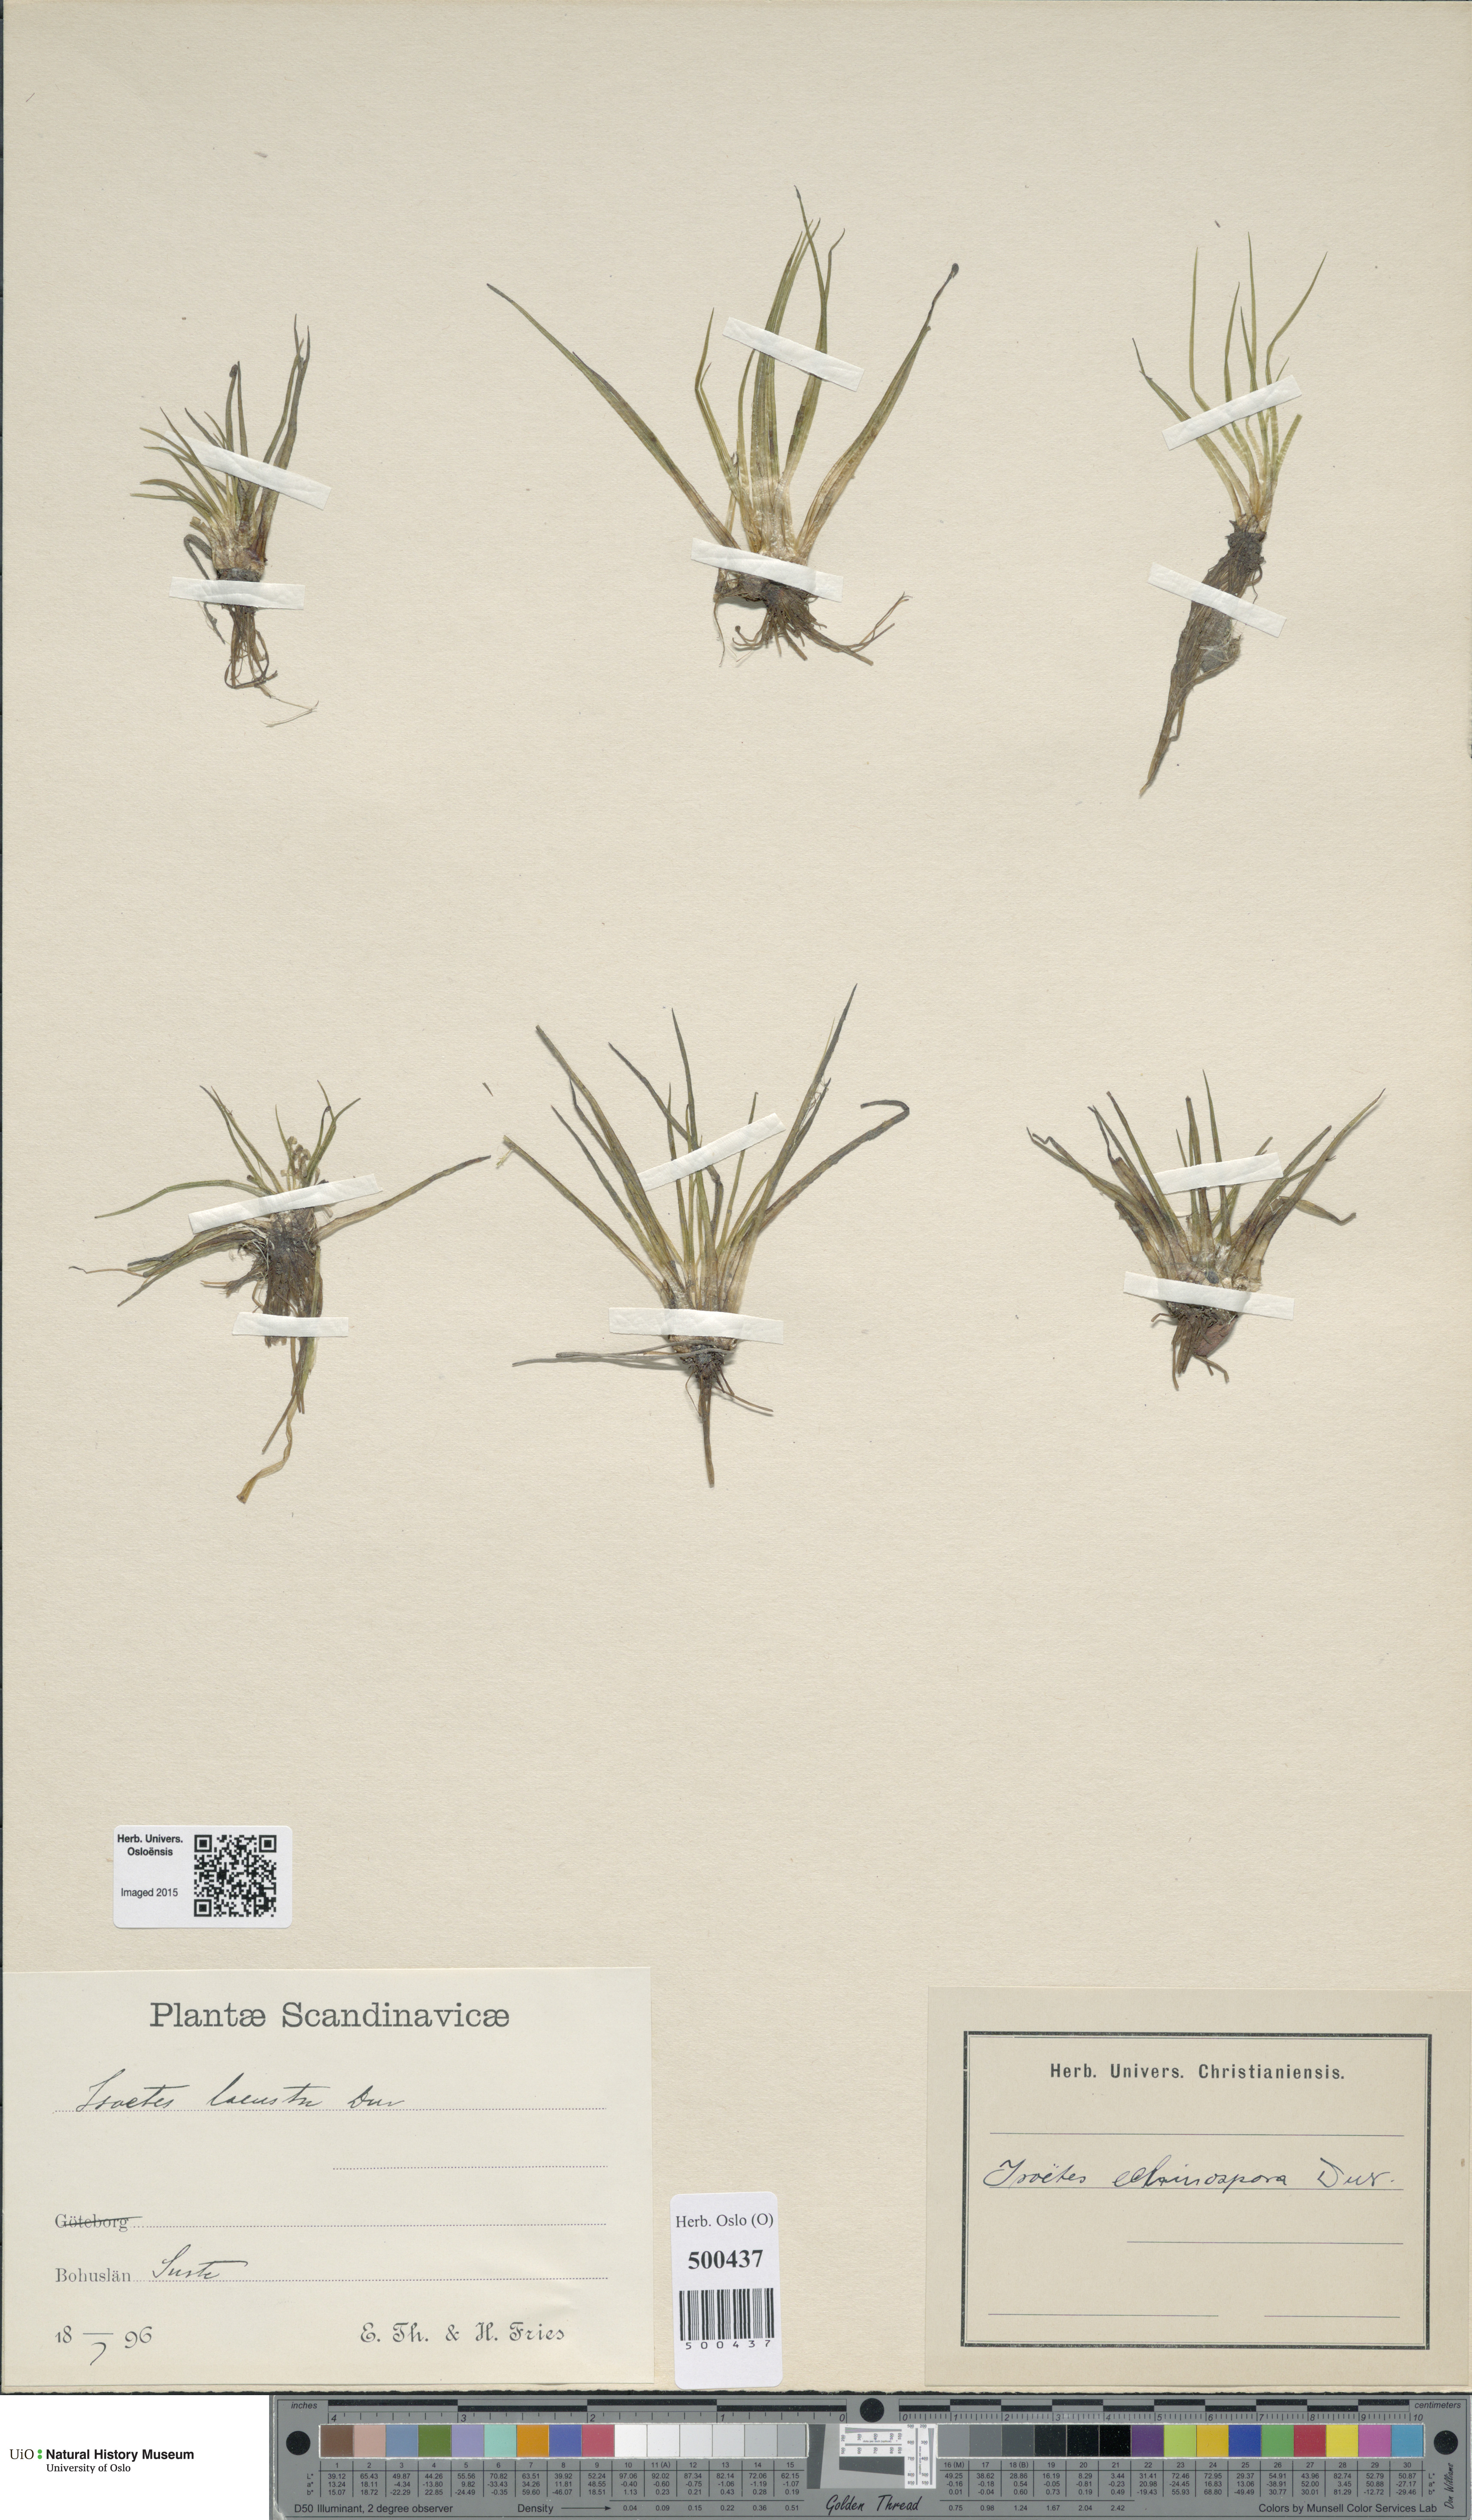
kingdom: Plantae
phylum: Tracheophyta
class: Lycopodiopsida
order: Isoetales
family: Isoetaceae
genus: Isoetes
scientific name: Isoetes echinospora
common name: Spring quillwort
